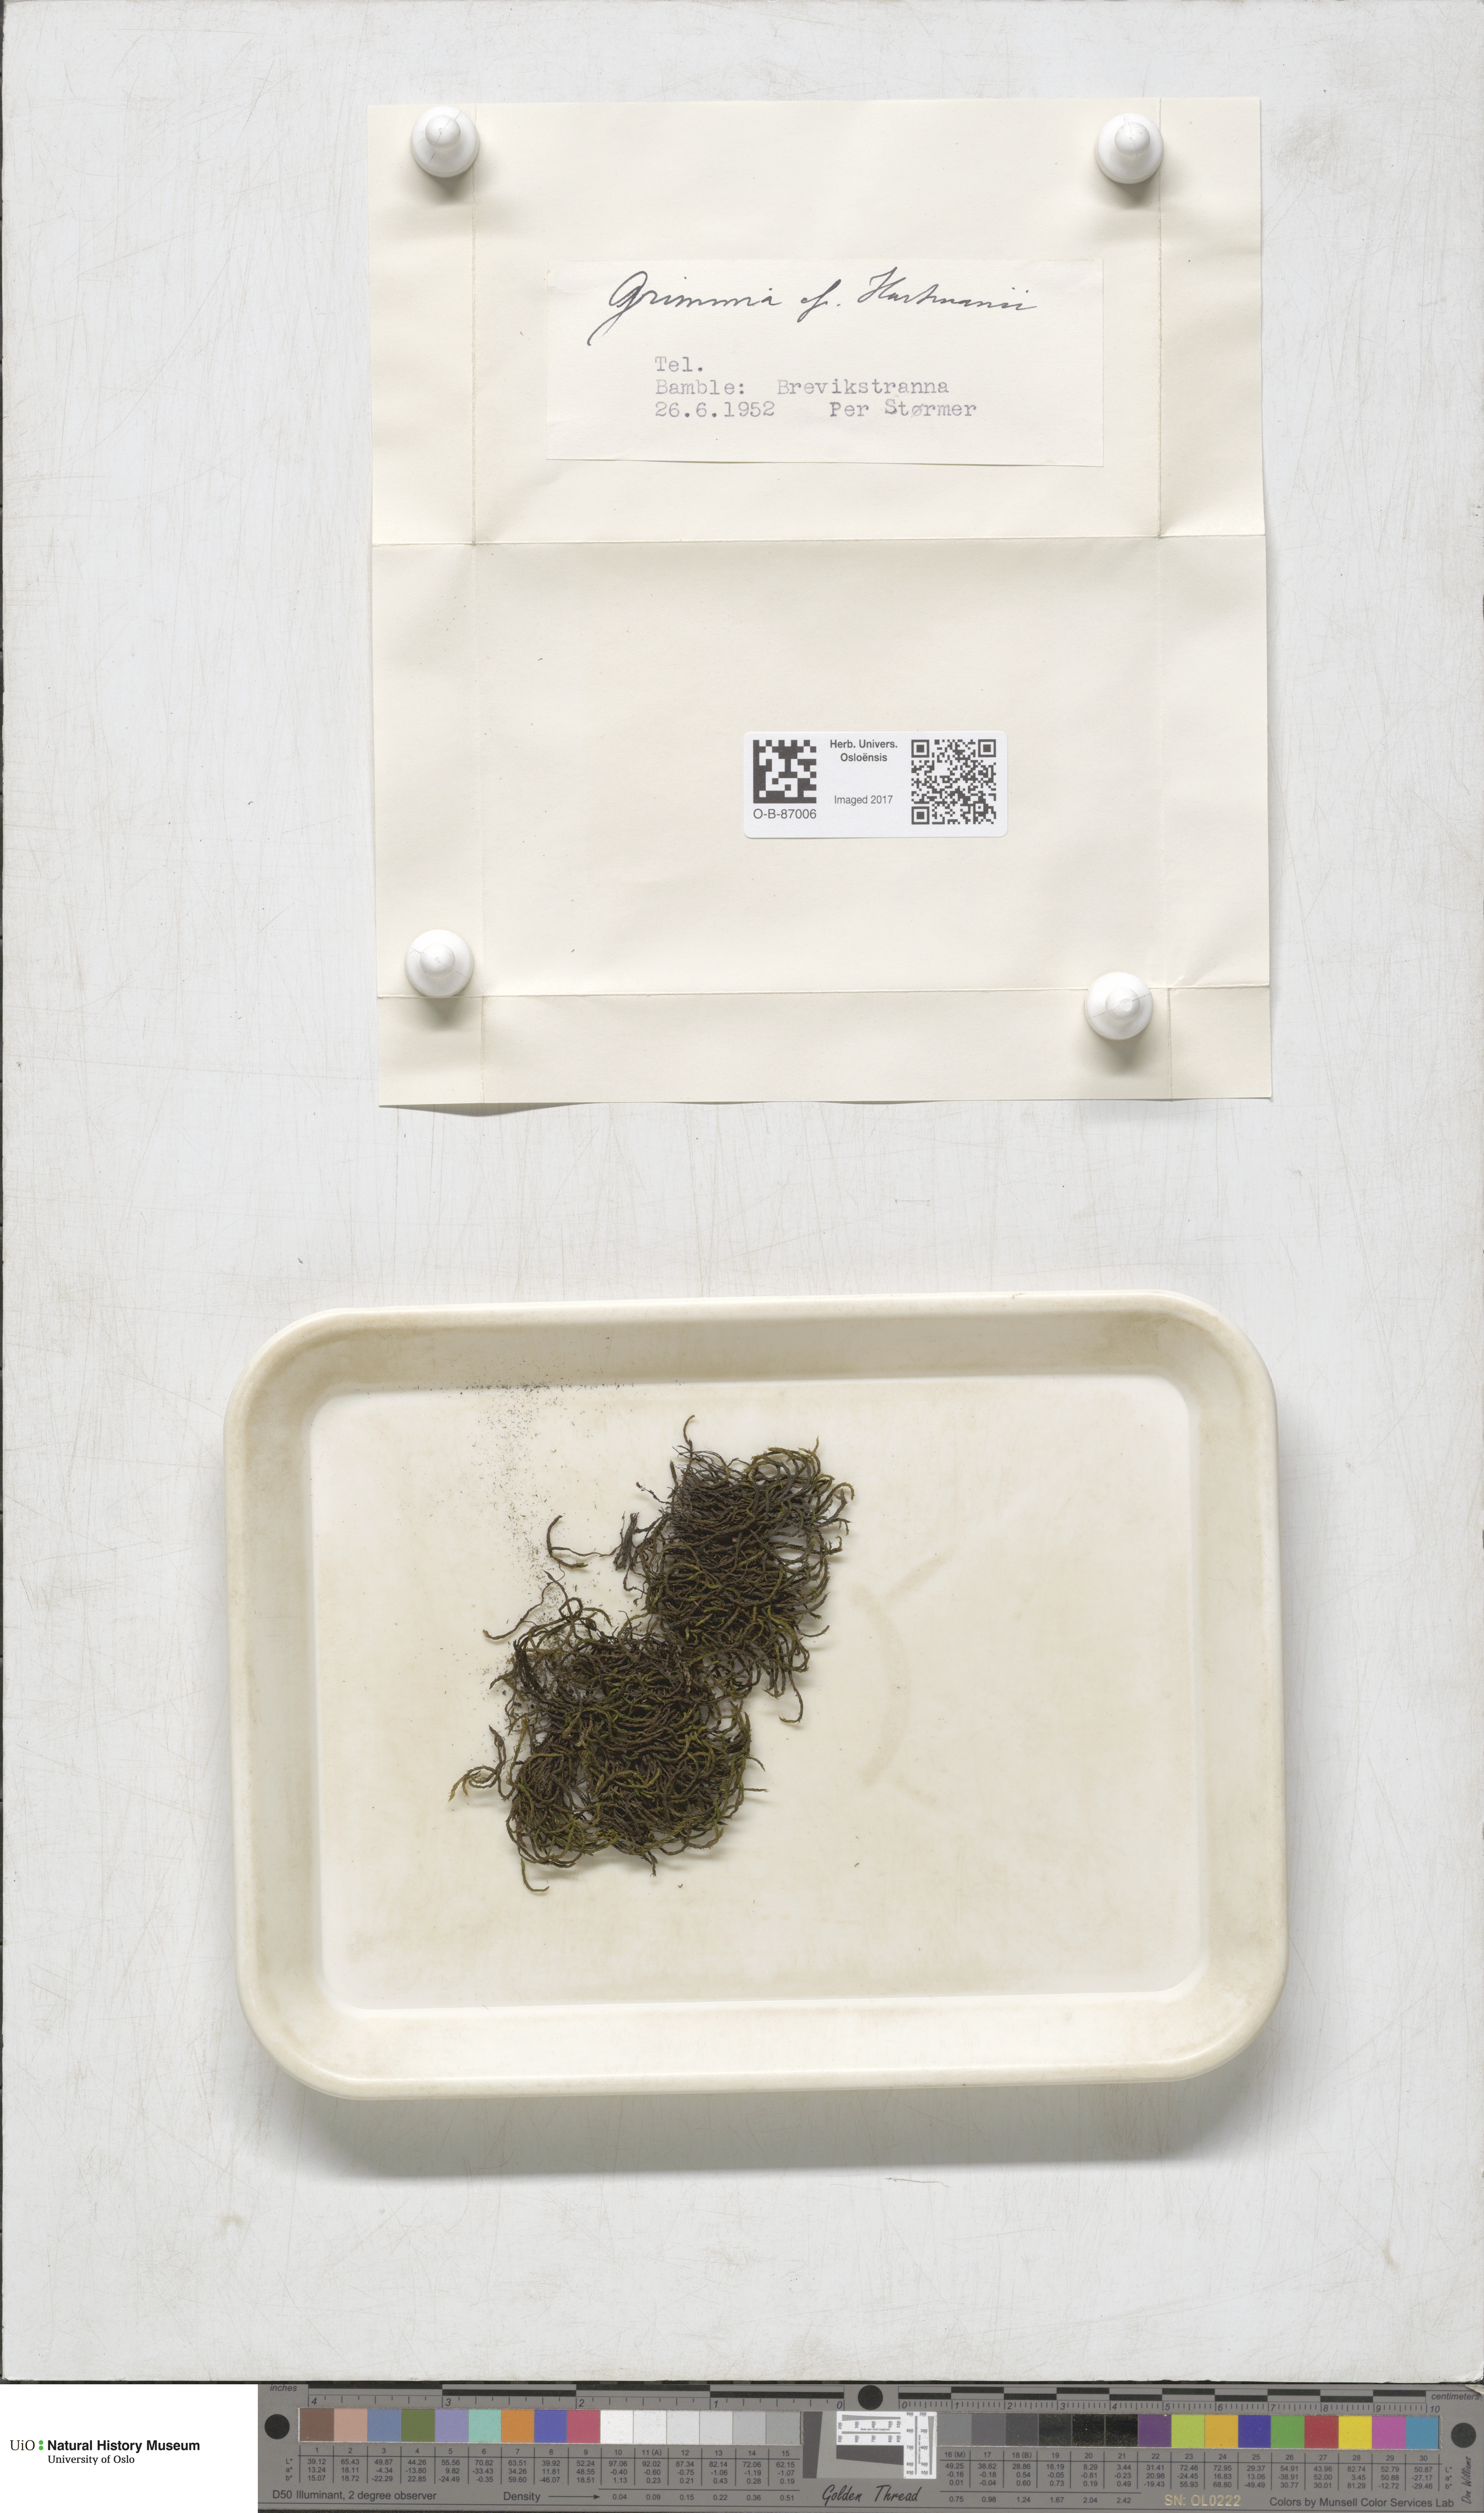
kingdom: Plantae
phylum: Bryophyta
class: Bryopsida
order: Grimmiales
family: Grimmiaceae
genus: Grimmia
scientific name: Grimmia hartmanii
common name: Hartman's grimmia
